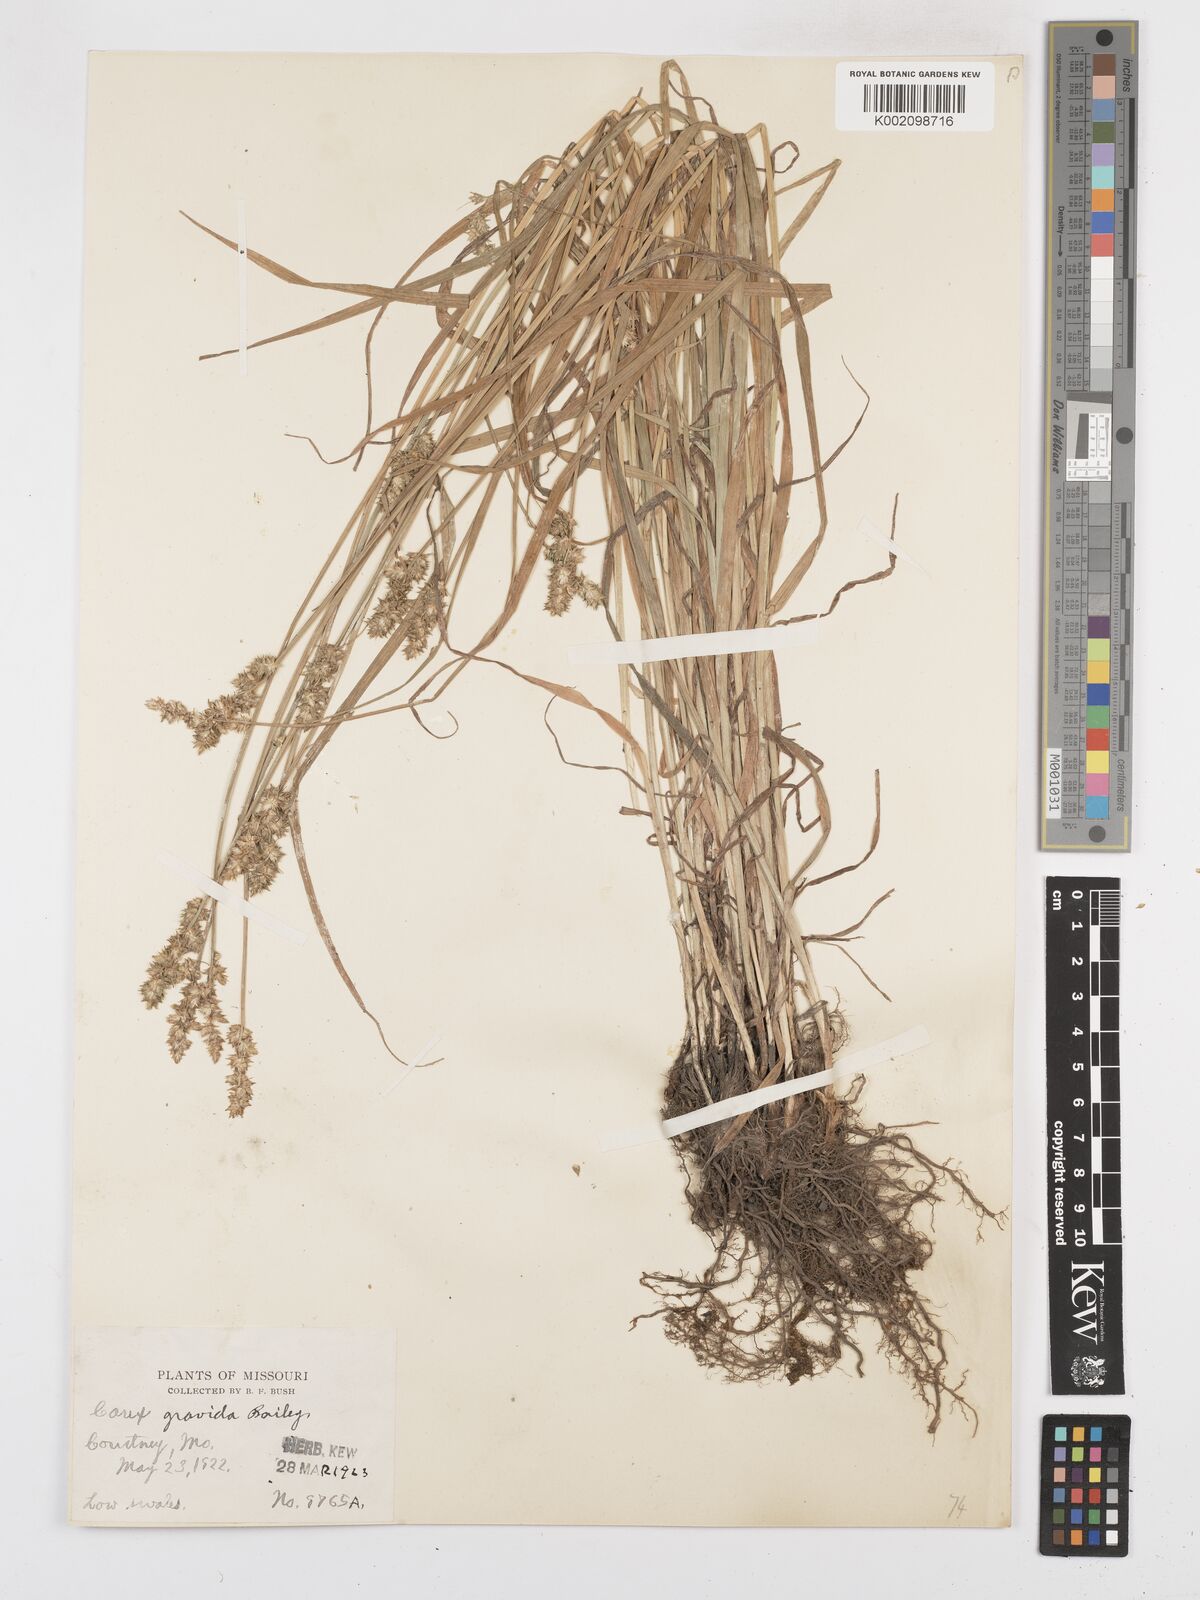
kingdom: Plantae
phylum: Tracheophyta
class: Liliopsida
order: Poales
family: Cyperaceae
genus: Carex
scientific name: Carex gravida
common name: Heavy sedge
